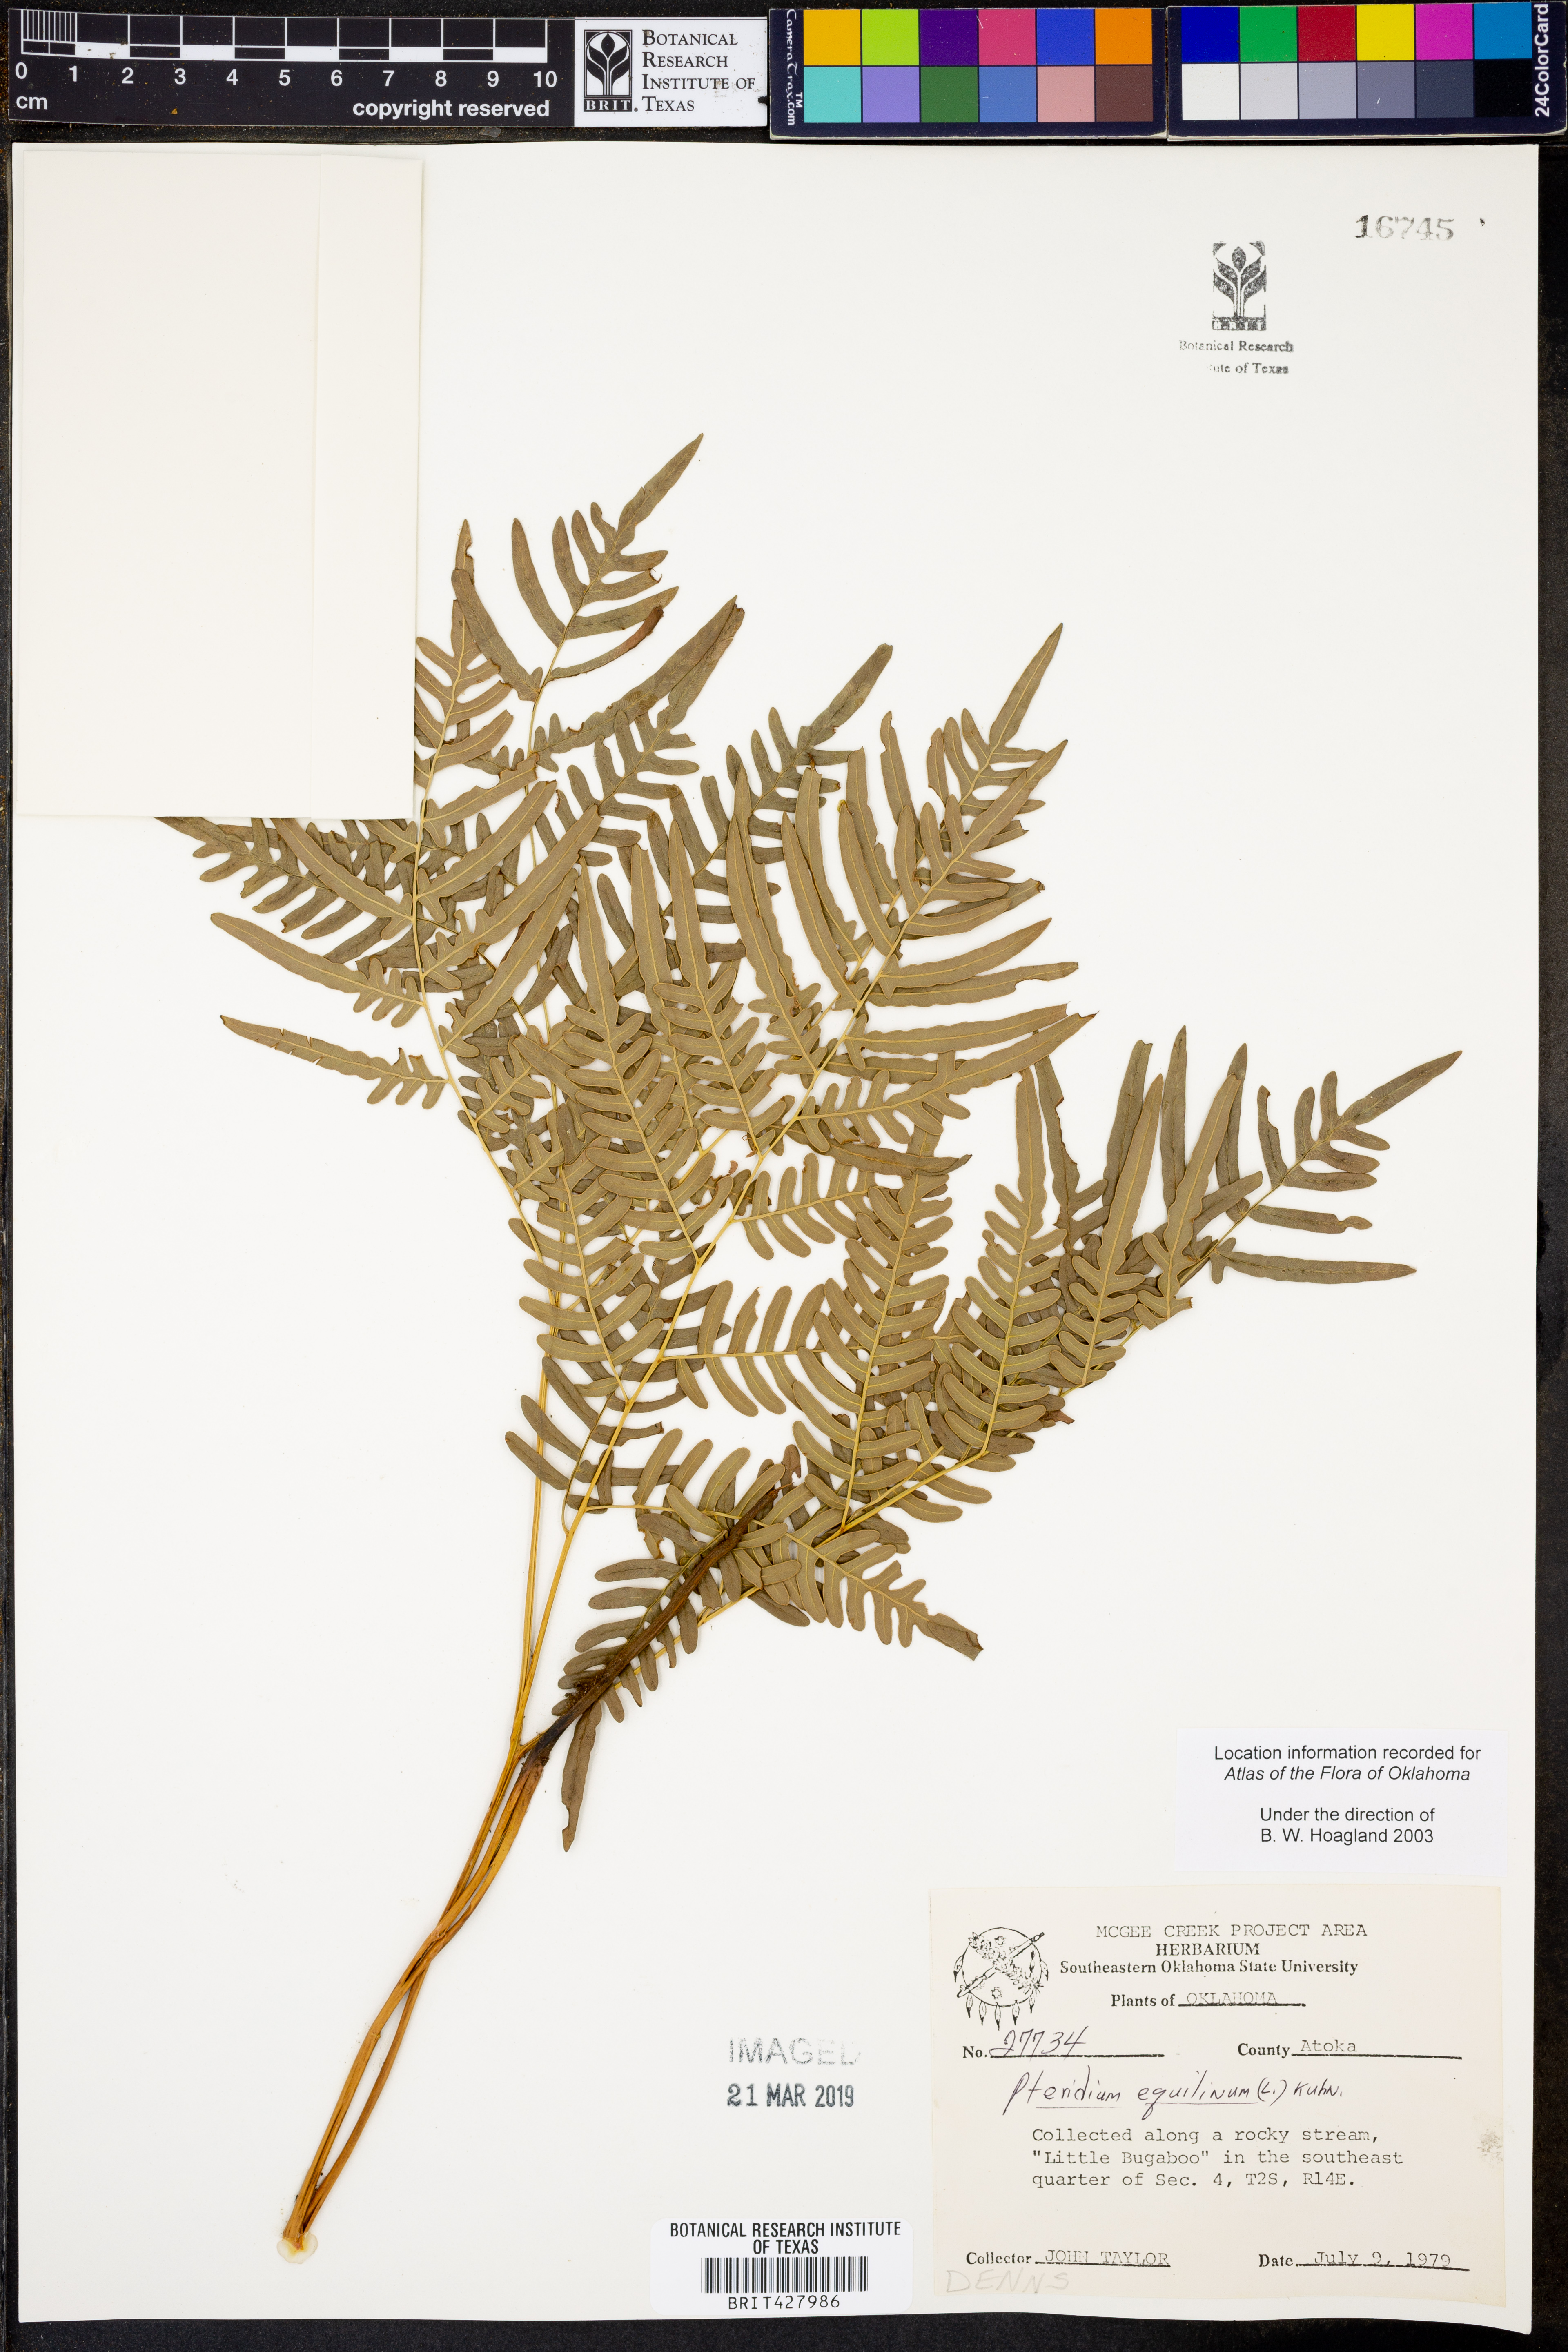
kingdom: Plantae
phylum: Tracheophyta
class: Polypodiopsida
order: Polypodiales
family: Dennstaedtiaceae
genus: Pteridium
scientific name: Pteridium aquilinum
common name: Bracken
